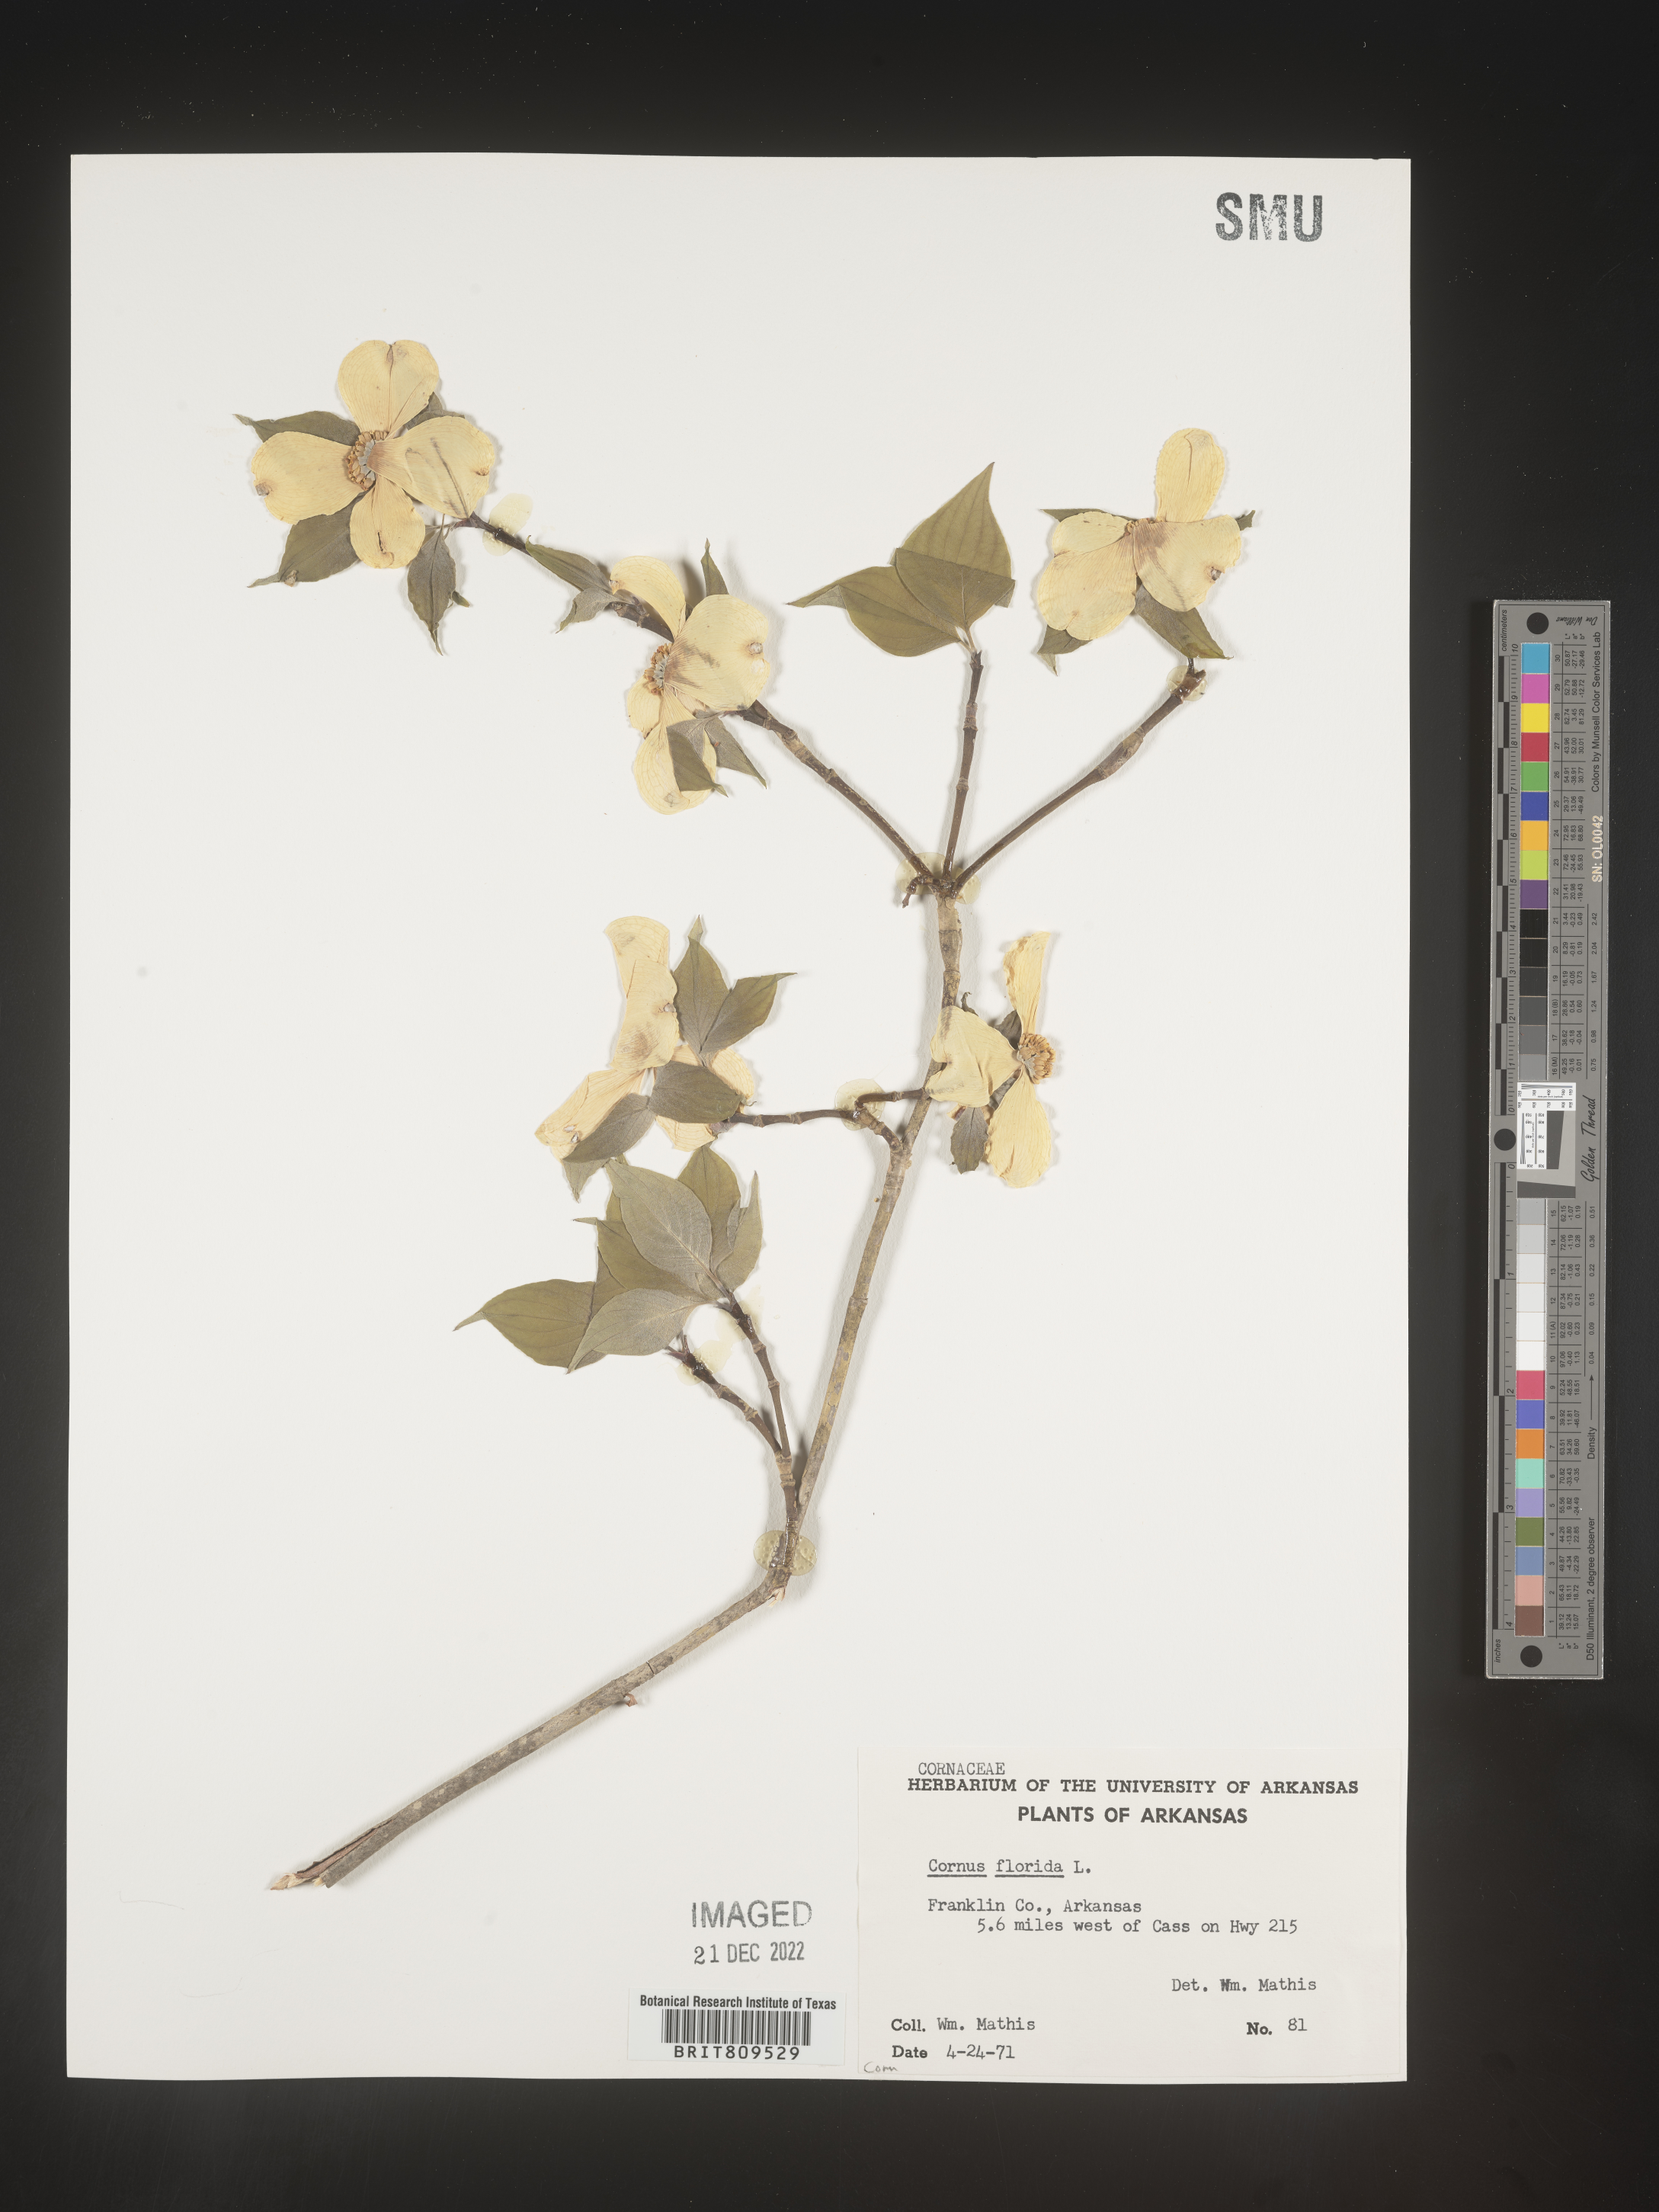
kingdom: Plantae
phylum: Tracheophyta
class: Magnoliopsida
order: Cornales
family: Cornaceae
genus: Cornus
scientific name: Cornus florida
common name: Flowering dogwood
